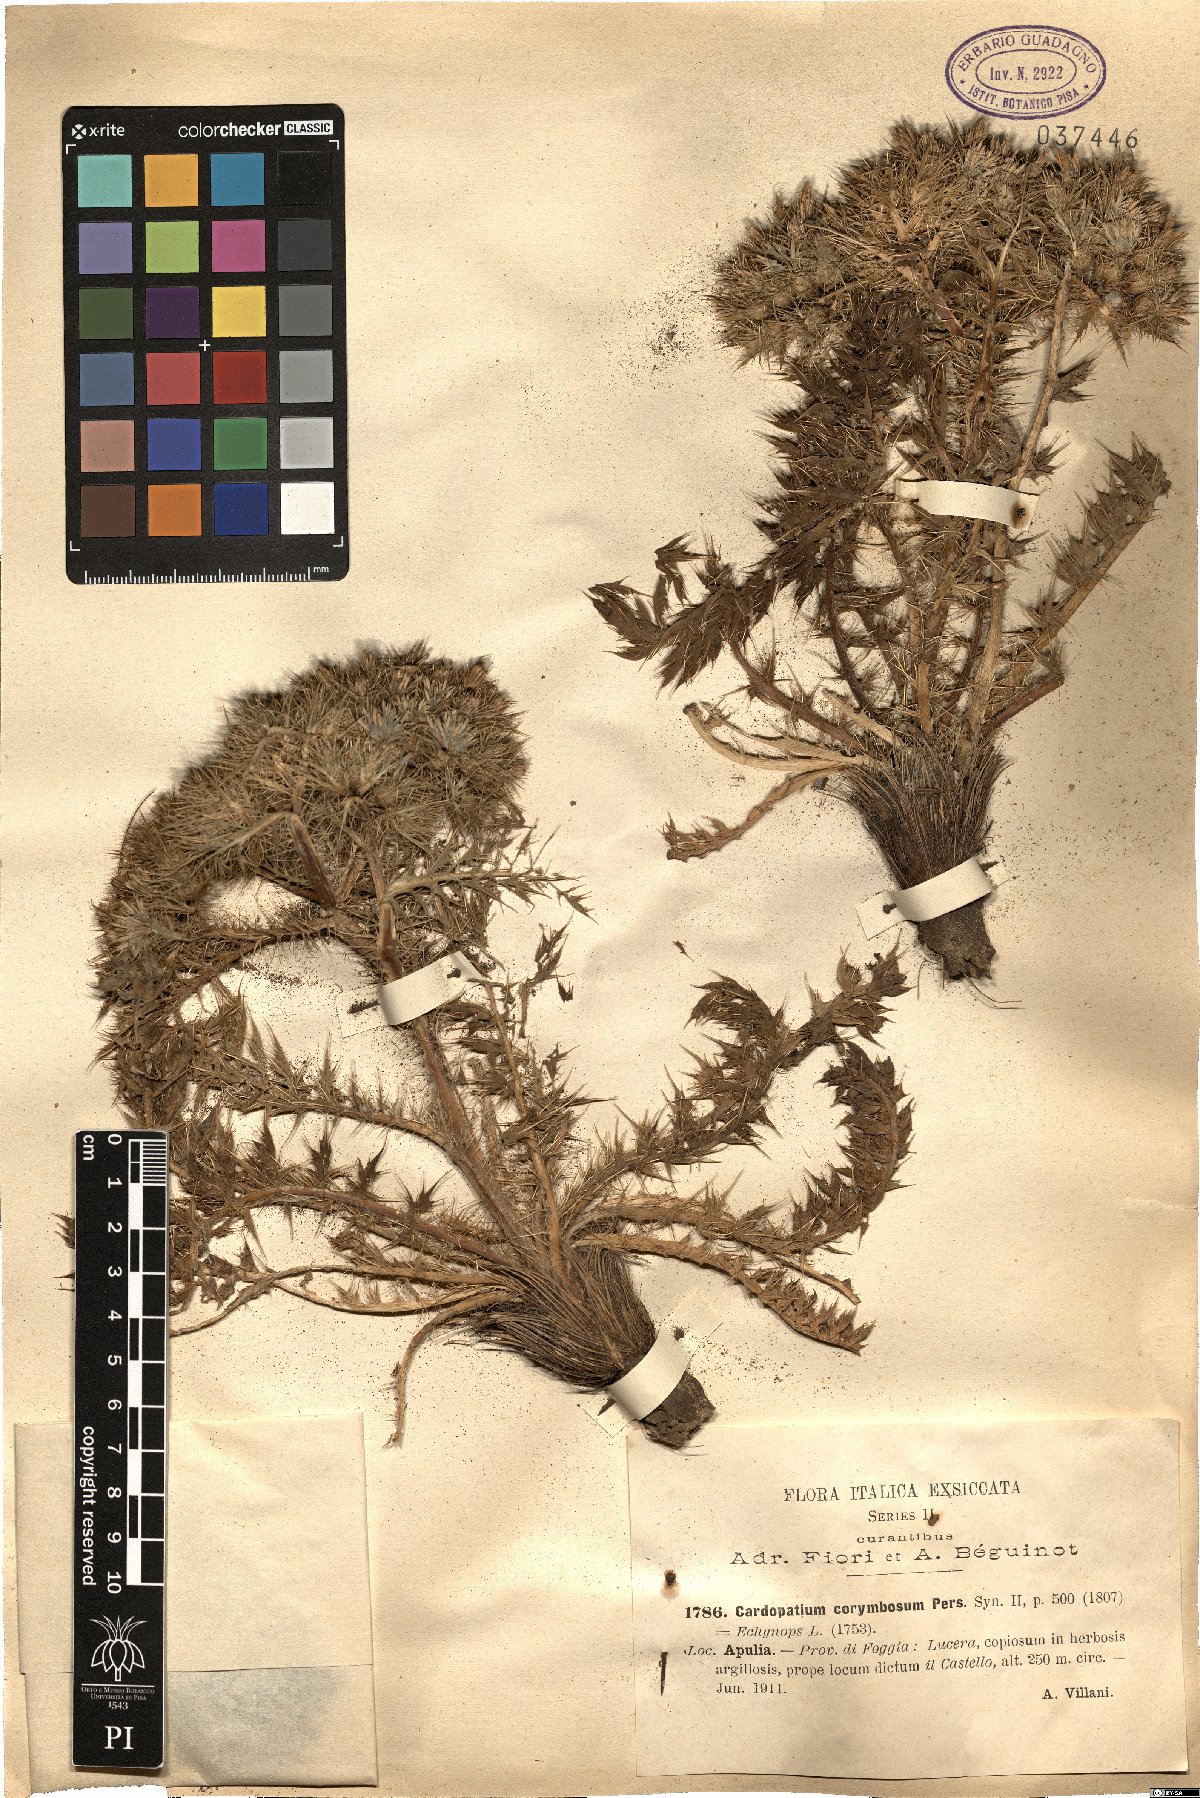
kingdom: Plantae
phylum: Tracheophyta
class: Magnoliopsida
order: Asterales
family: Asteraceae
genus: Cardopatium
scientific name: Cardopatium corymbosum
